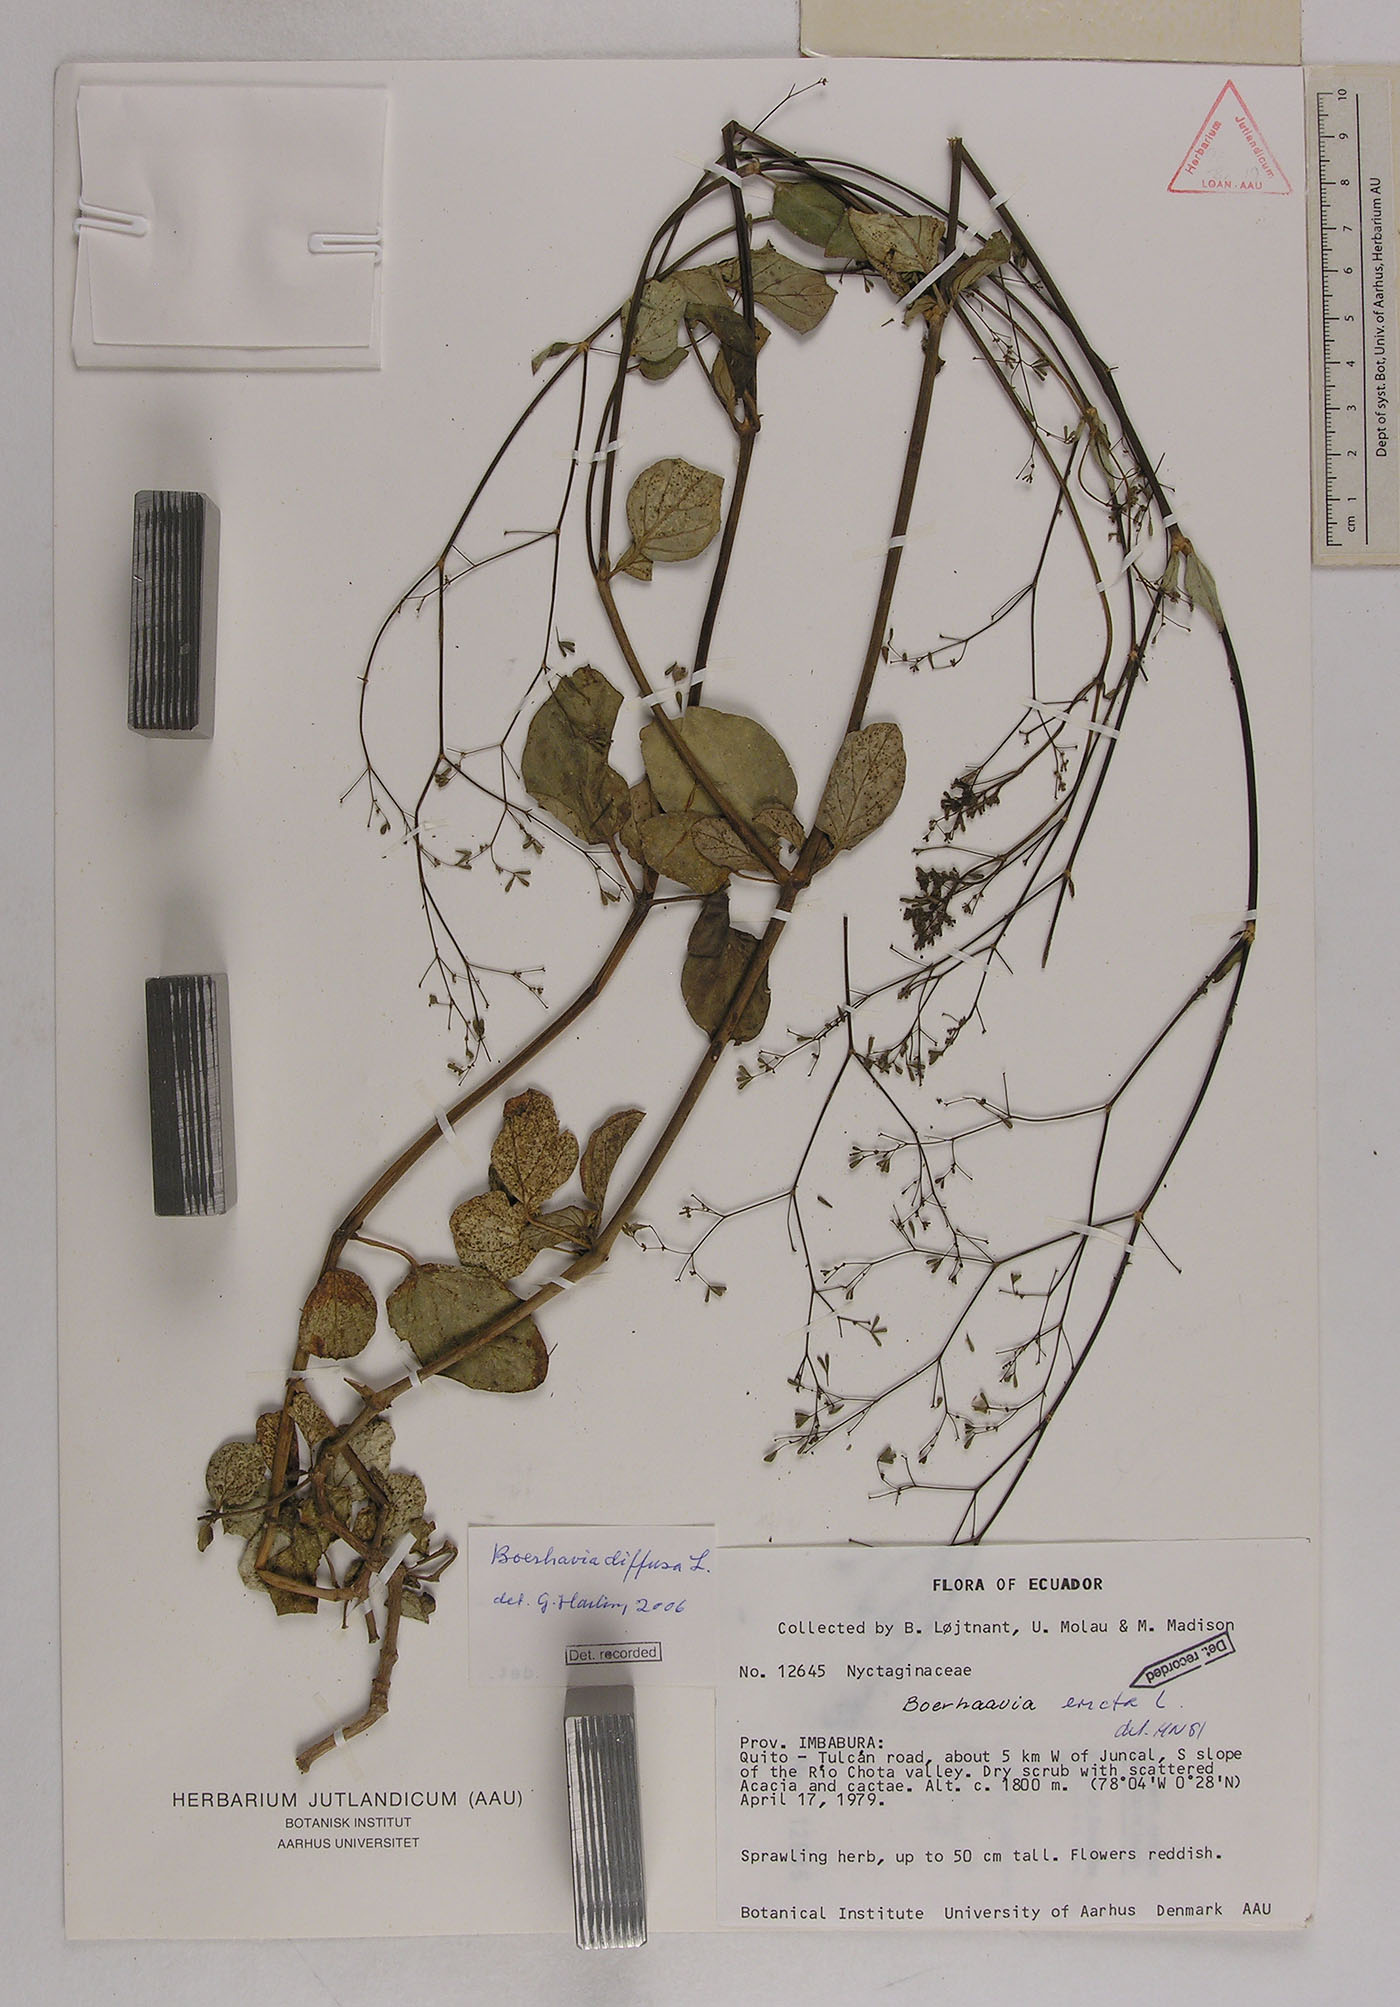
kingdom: Plantae
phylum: Tracheophyta
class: Magnoliopsida
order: Caryophyllales
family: Nyctaginaceae
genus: Boerhavia
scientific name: Boerhavia diffusa
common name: Red spiderling
